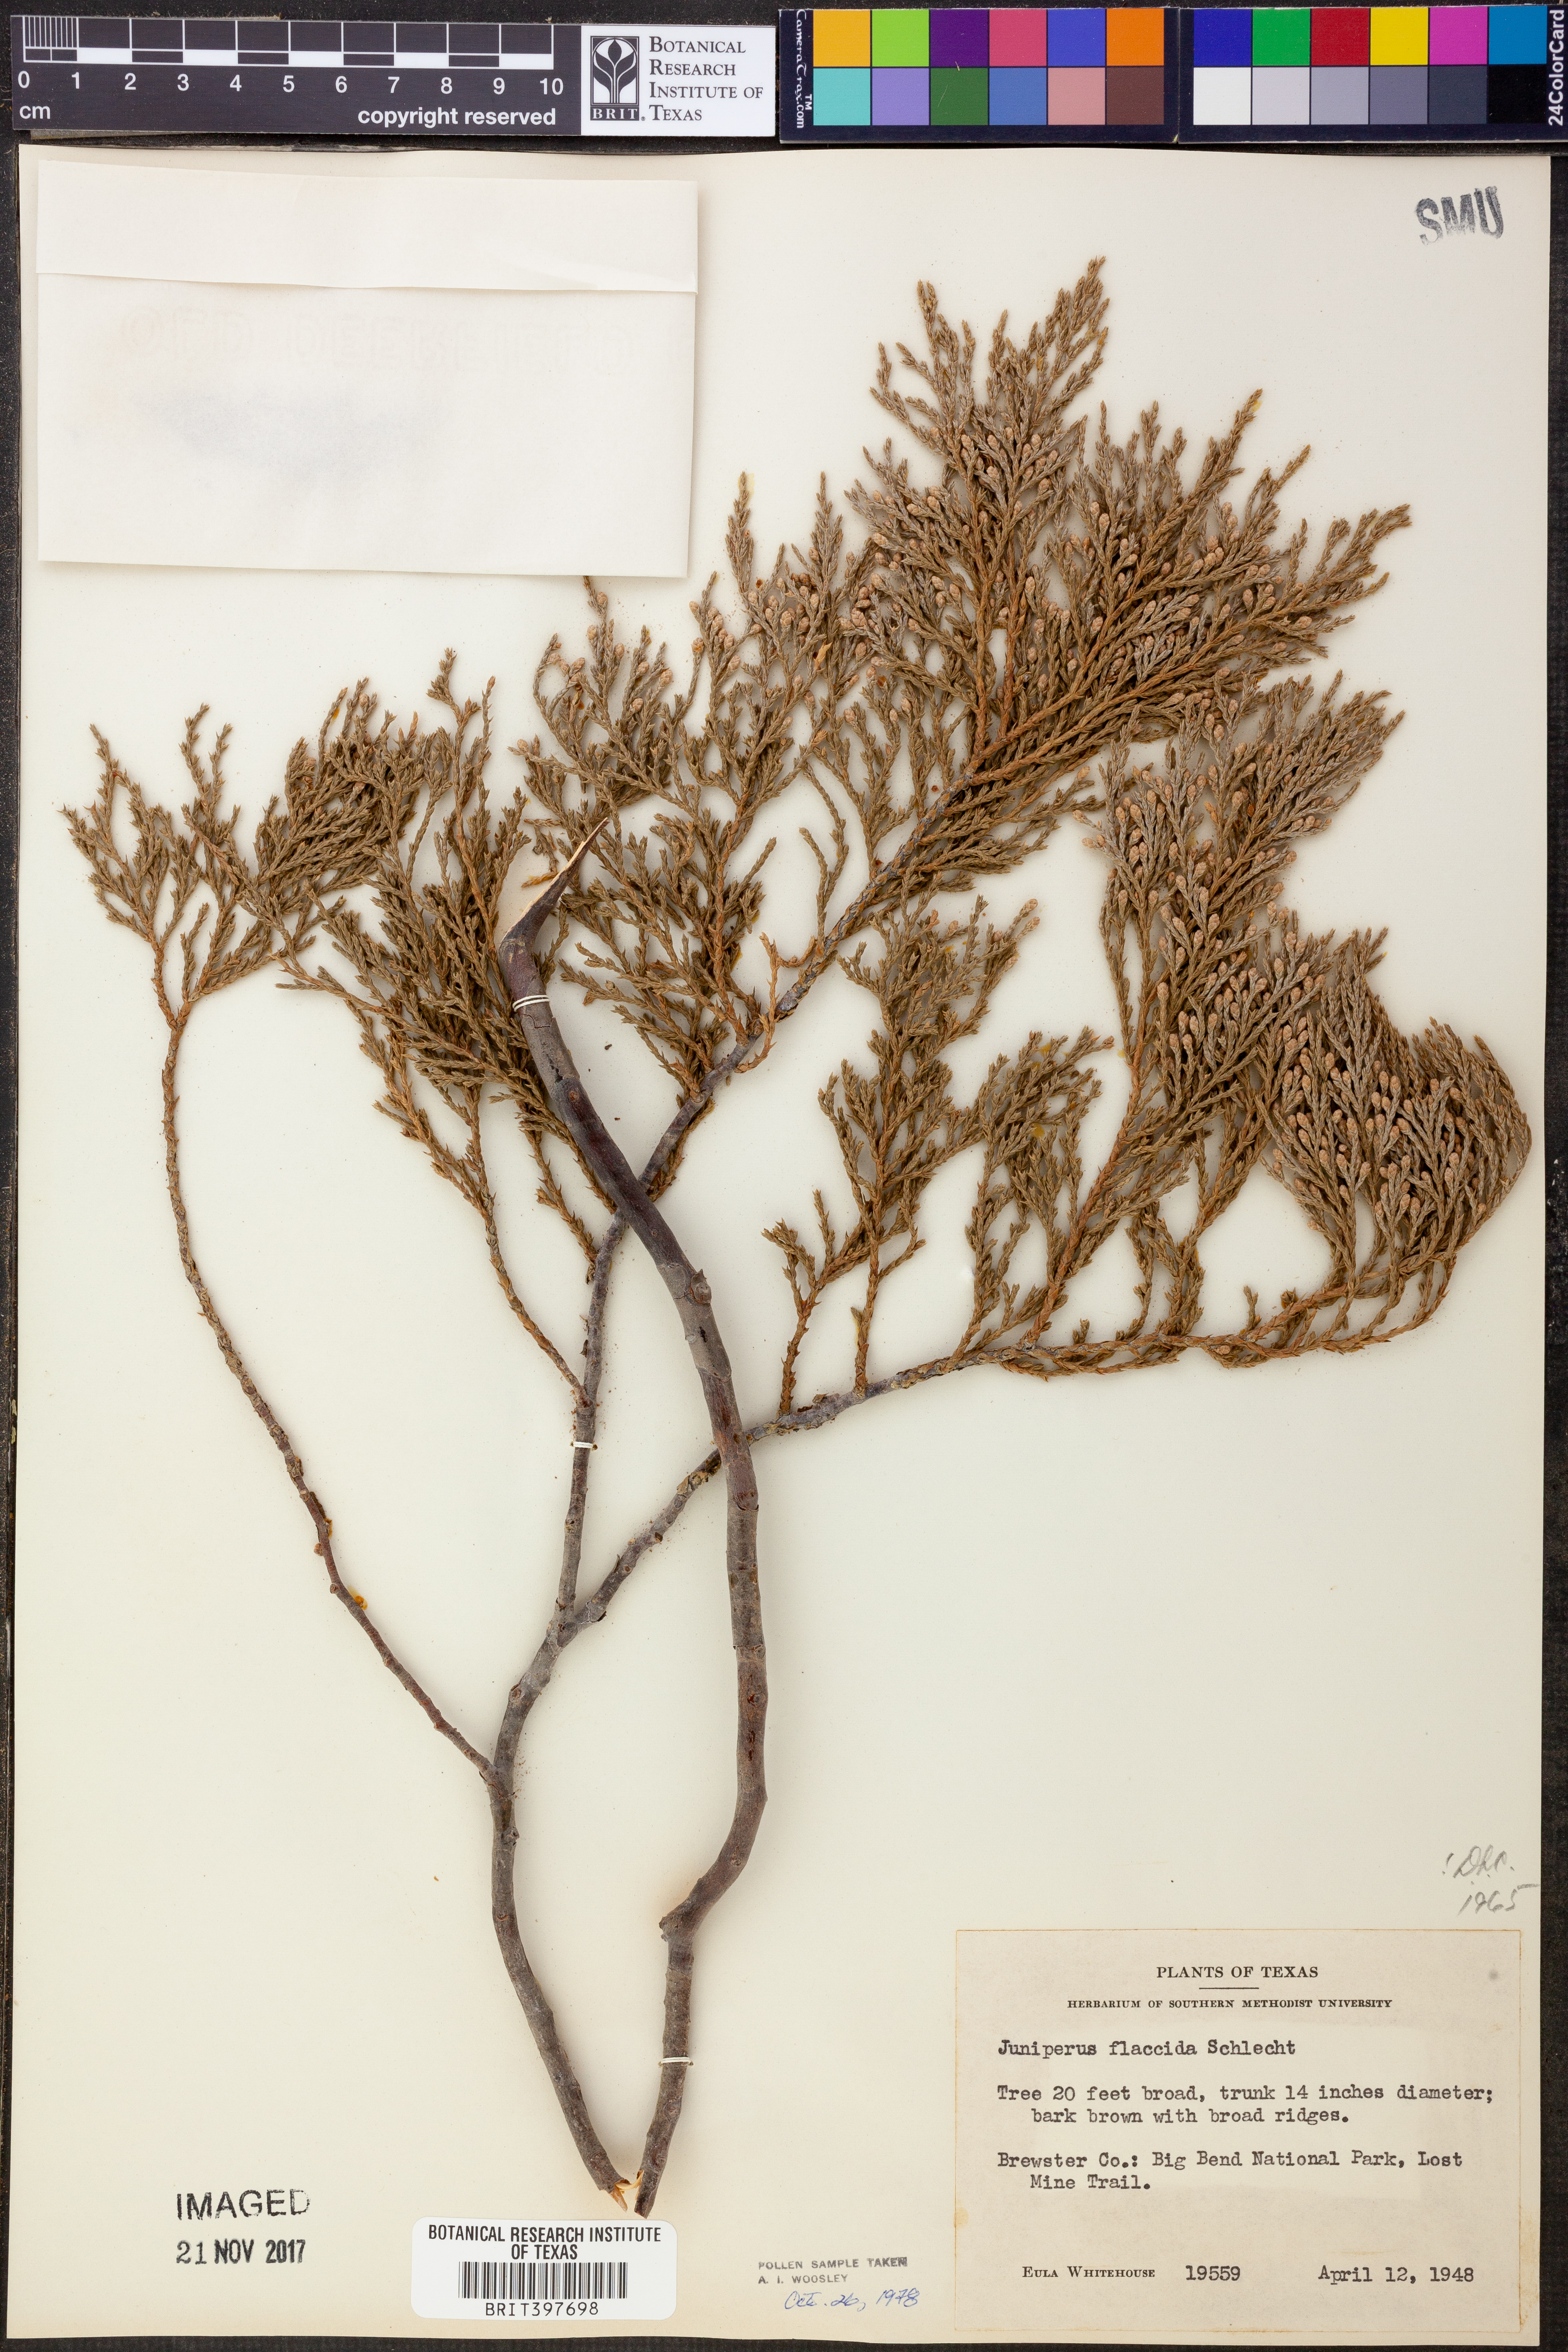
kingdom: Plantae
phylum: Tracheophyta
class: Pinopsida
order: Pinales
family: Cupressaceae
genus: Juniperus
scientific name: Juniperus flaccida
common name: Drooping juniper
